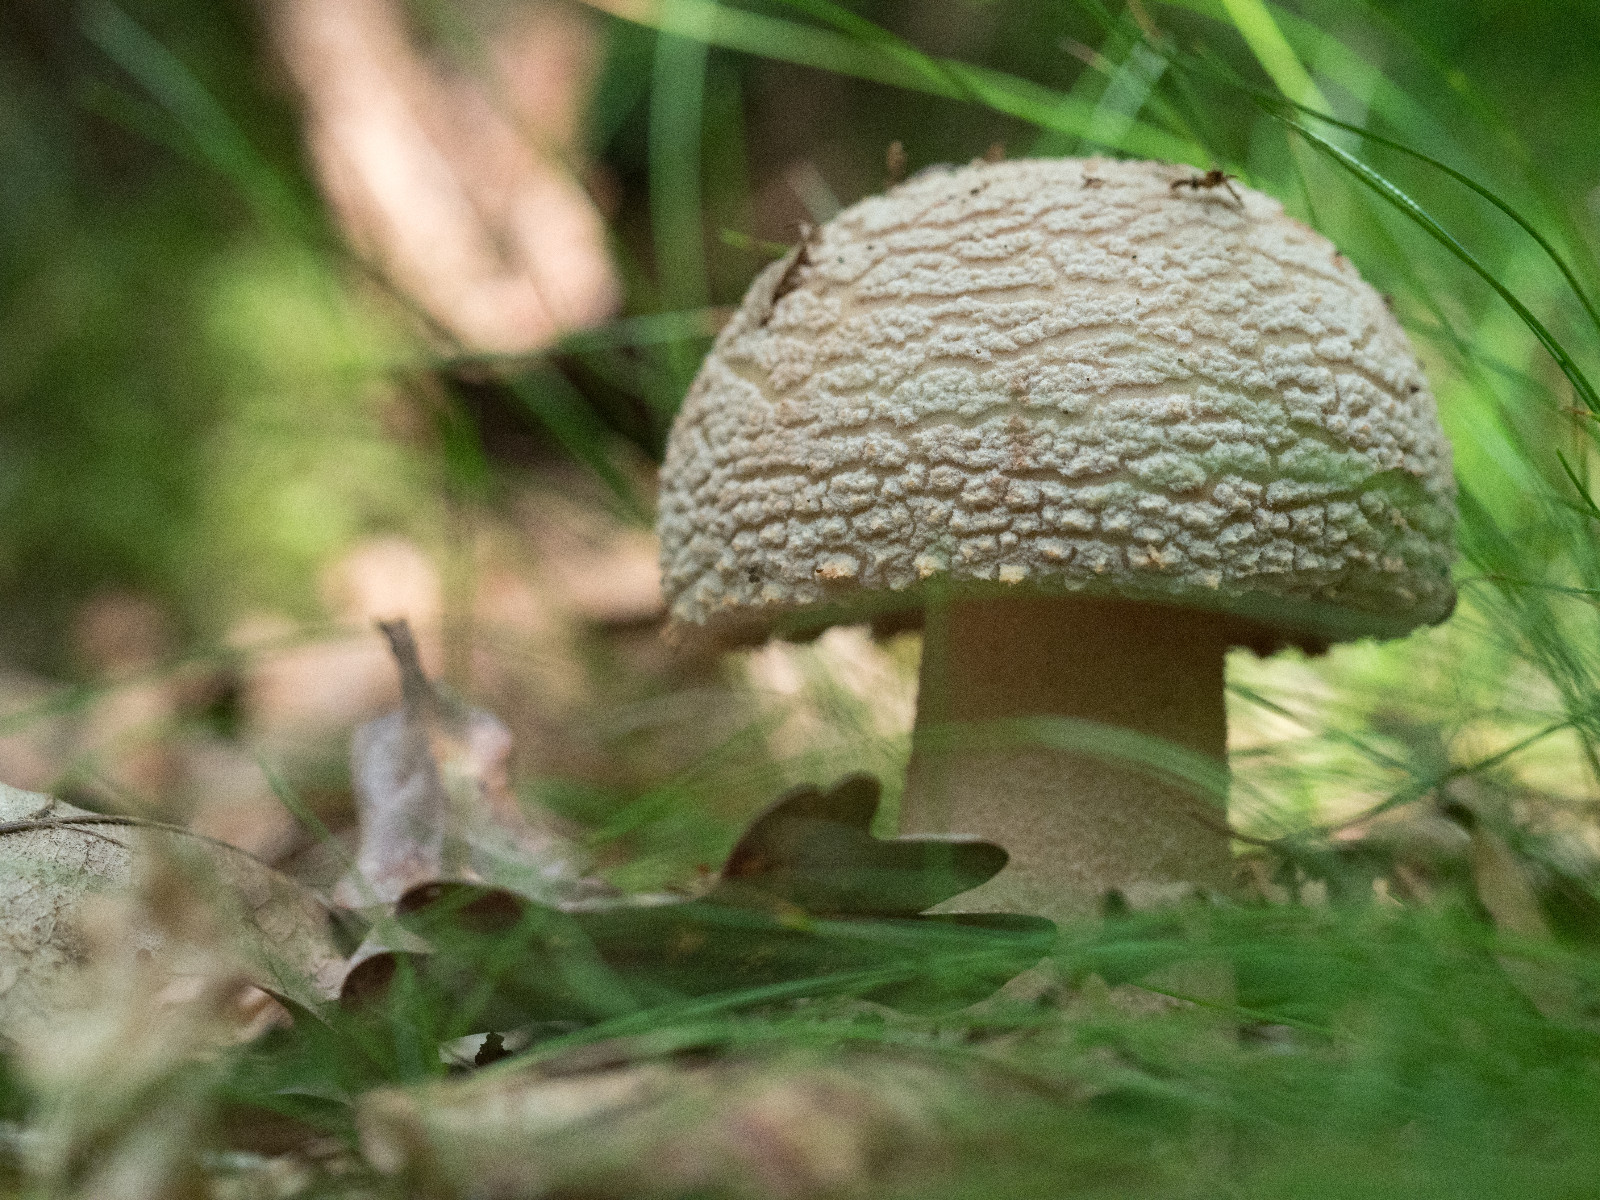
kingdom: Fungi
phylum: Basidiomycota
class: Agaricomycetes
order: Agaricales
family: Amanitaceae
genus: Amanita
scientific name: Amanita rubescens
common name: rødmende fluesvamp
